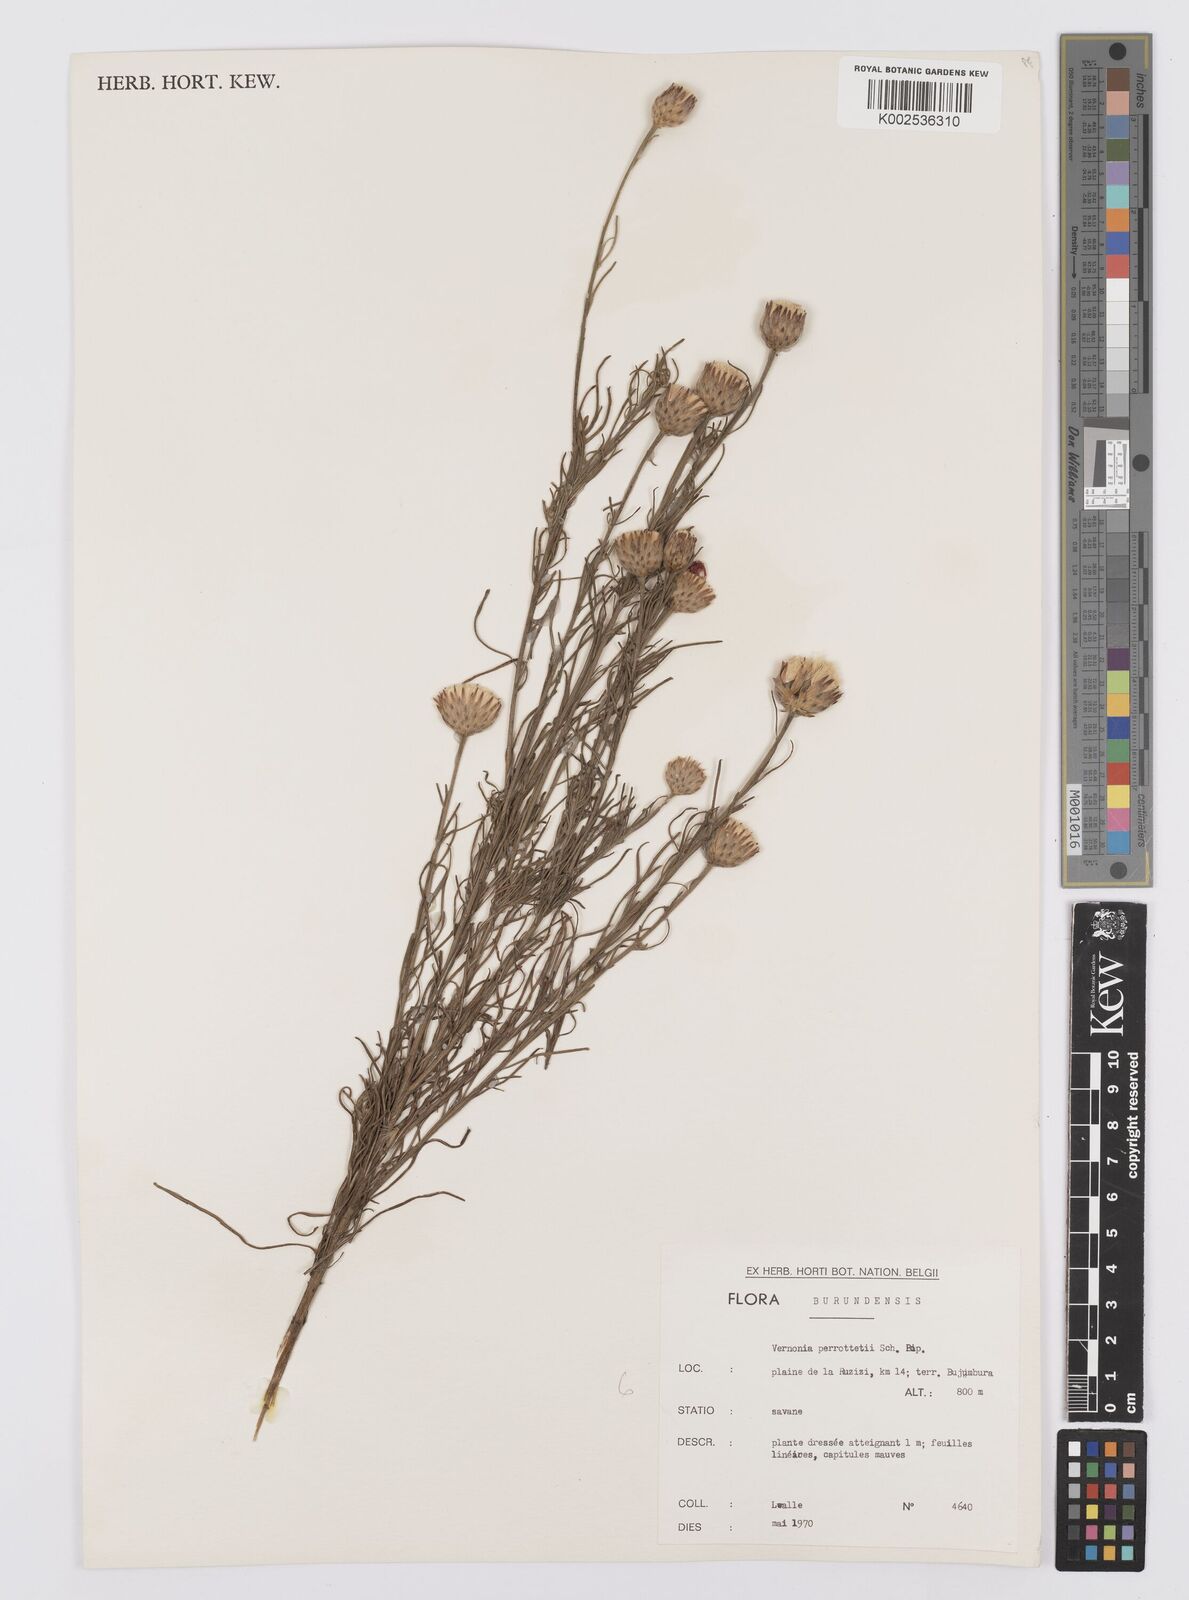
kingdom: Plantae
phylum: Tracheophyta
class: Magnoliopsida
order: Asterales
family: Asteraceae
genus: Crystallopollen
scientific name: Crystallopollen serratuloides
